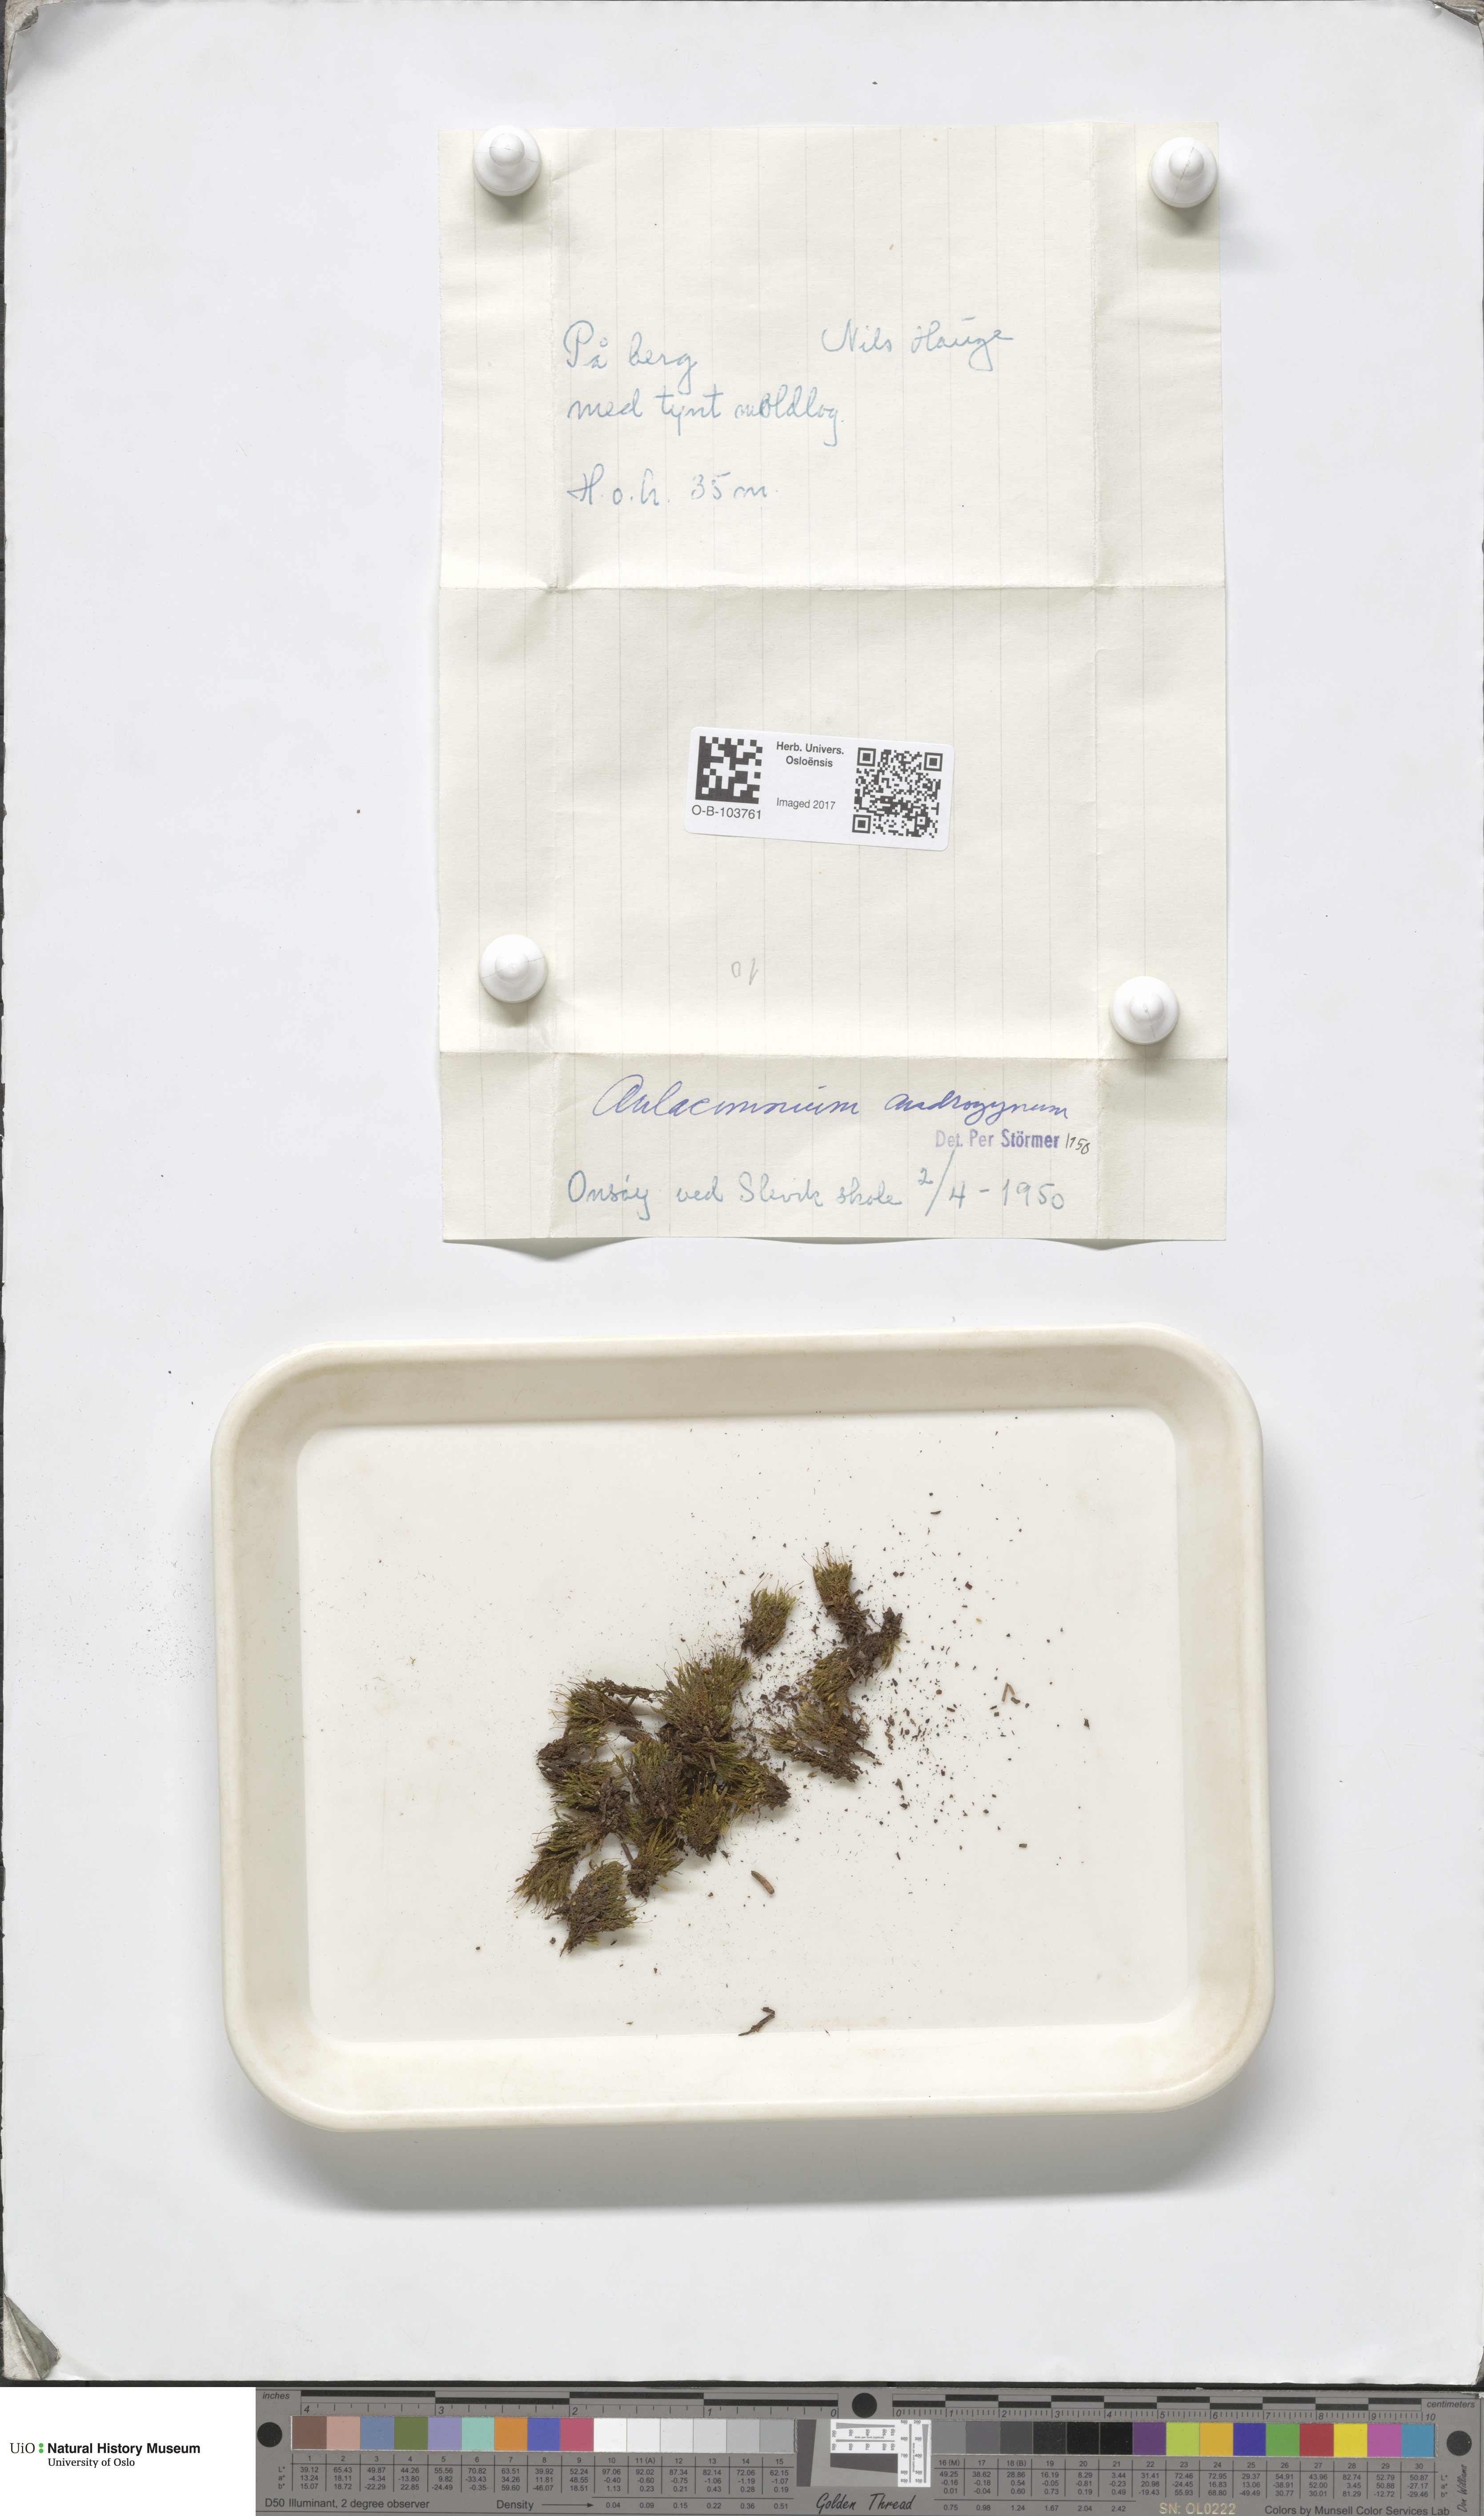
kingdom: Plantae
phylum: Bryophyta
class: Bryopsida
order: Aulacomniales
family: Aulacomniaceae
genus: Aulacomnium
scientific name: Aulacomnium androgynum
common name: Little groove moss
